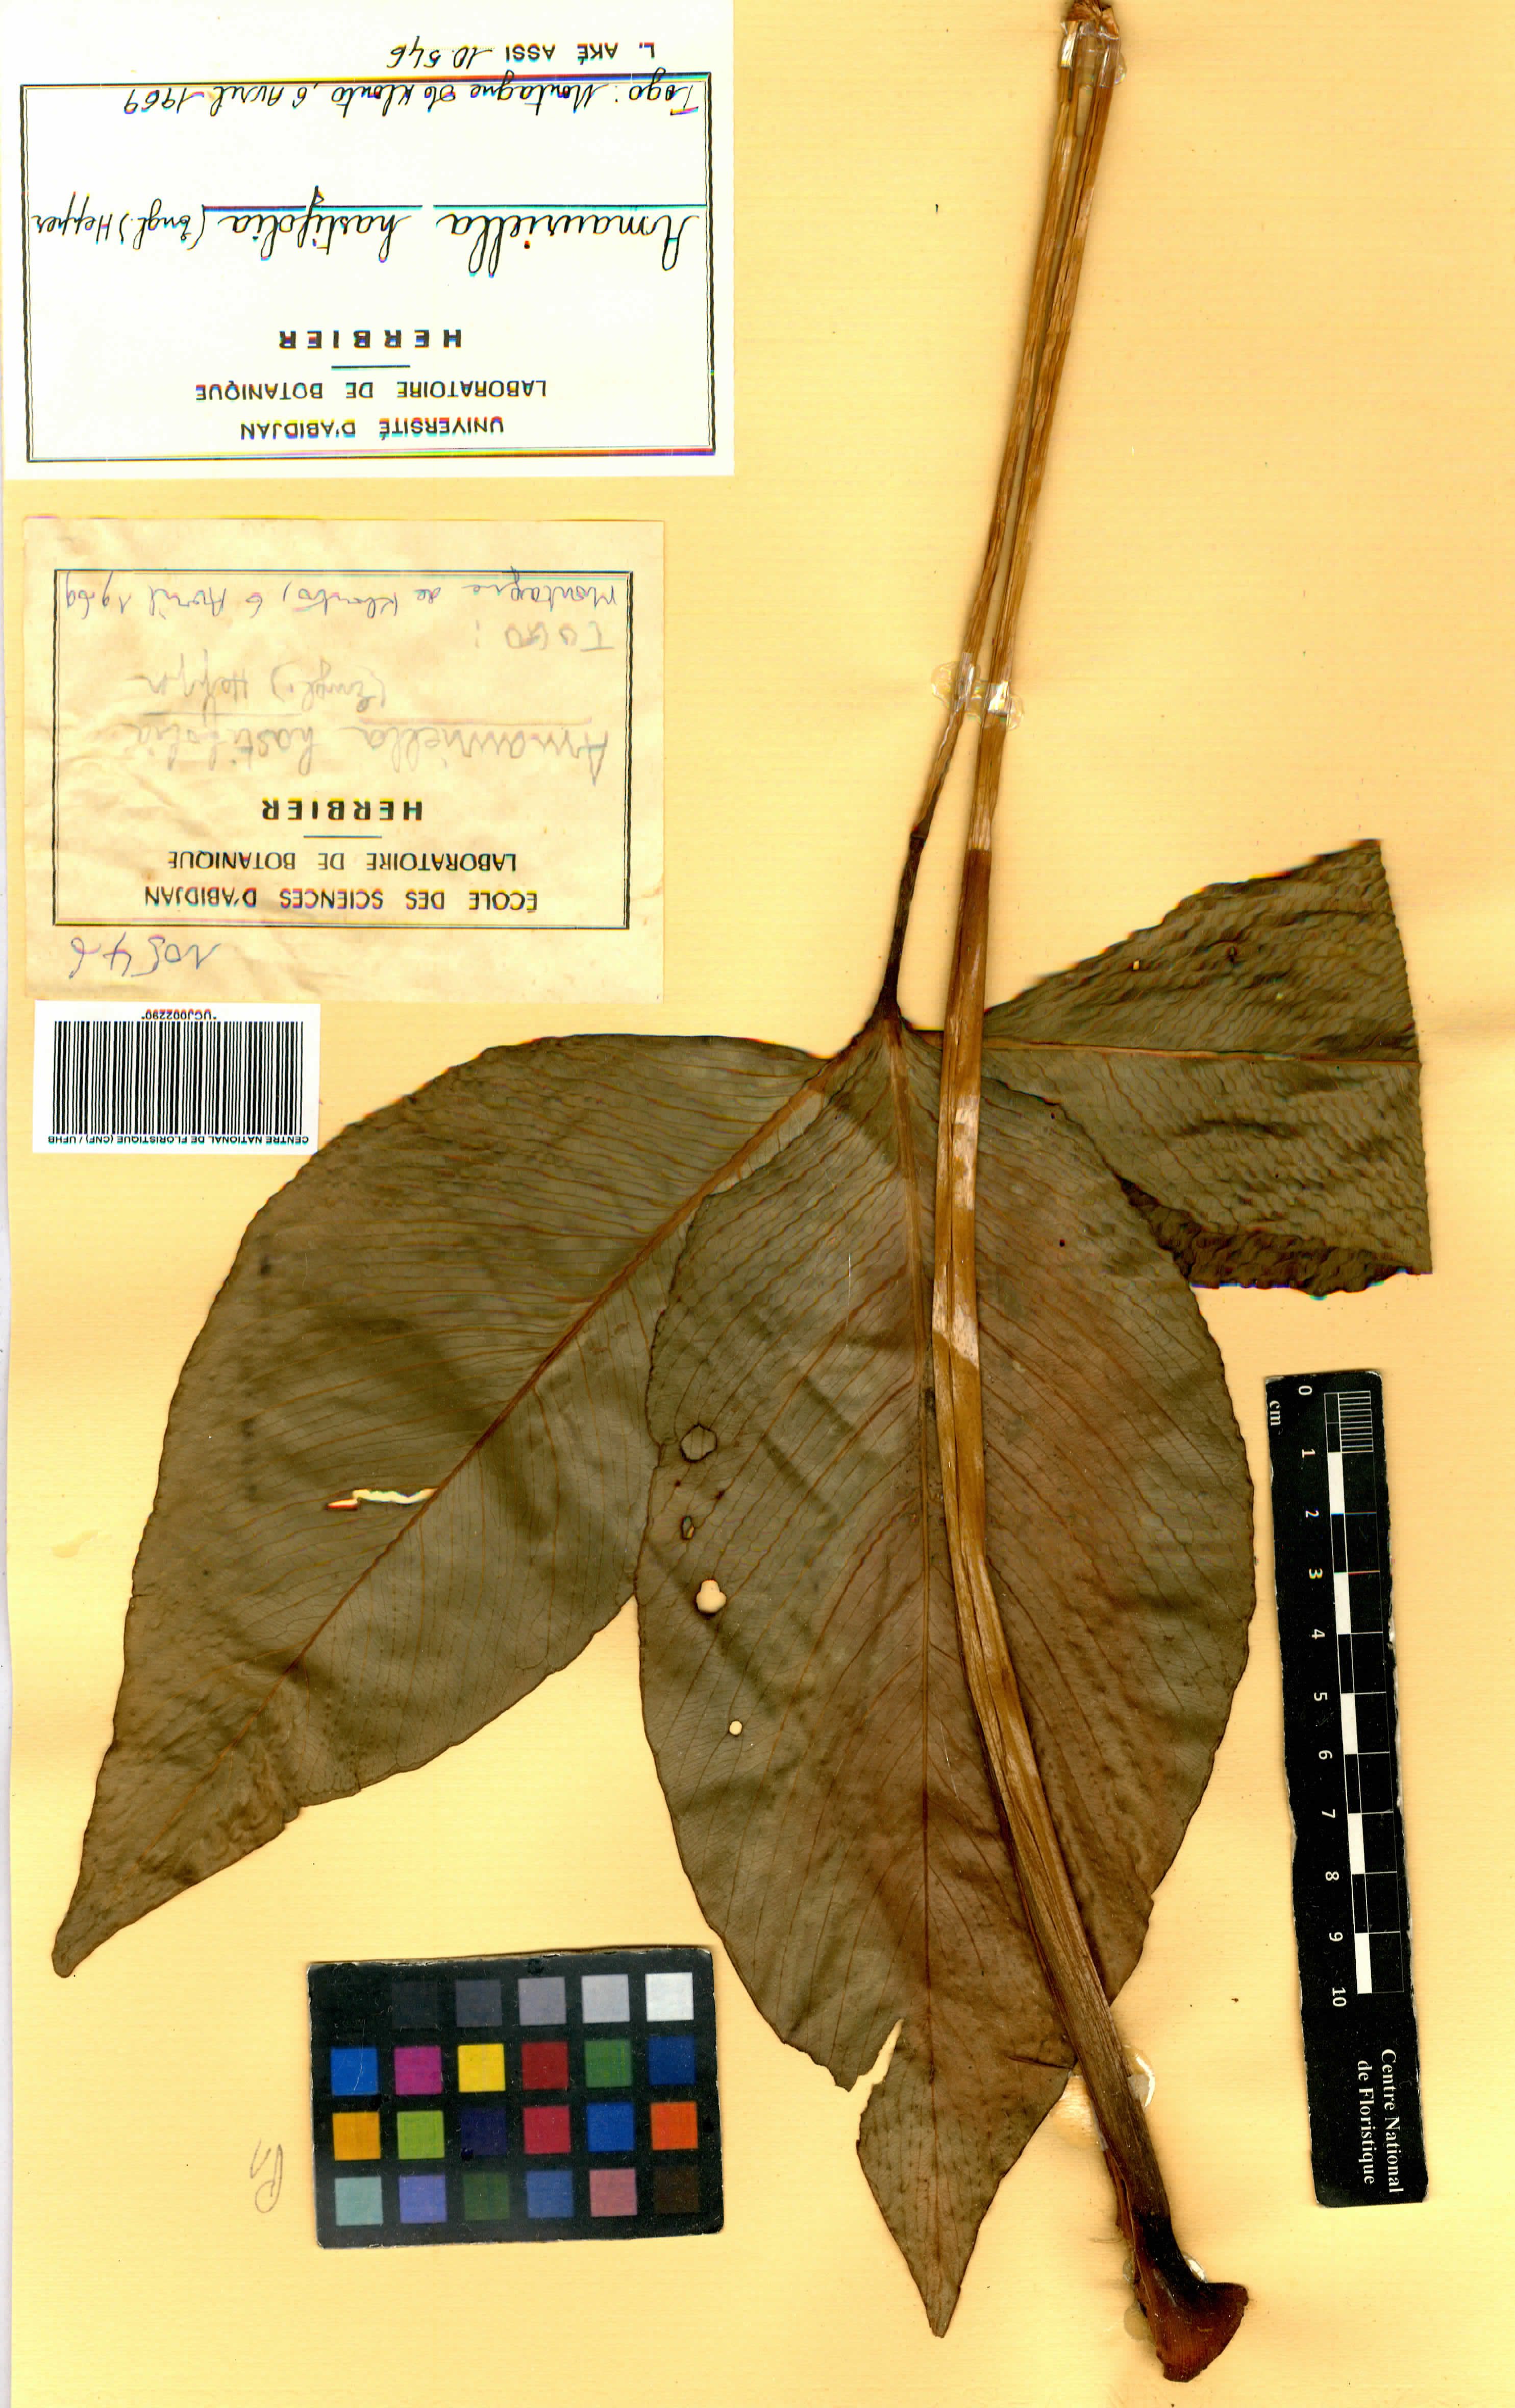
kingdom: Plantae
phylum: Tracheophyta
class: Liliopsida
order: Alismatales
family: Araceae
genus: Anubias
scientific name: Anubias hastifolia
